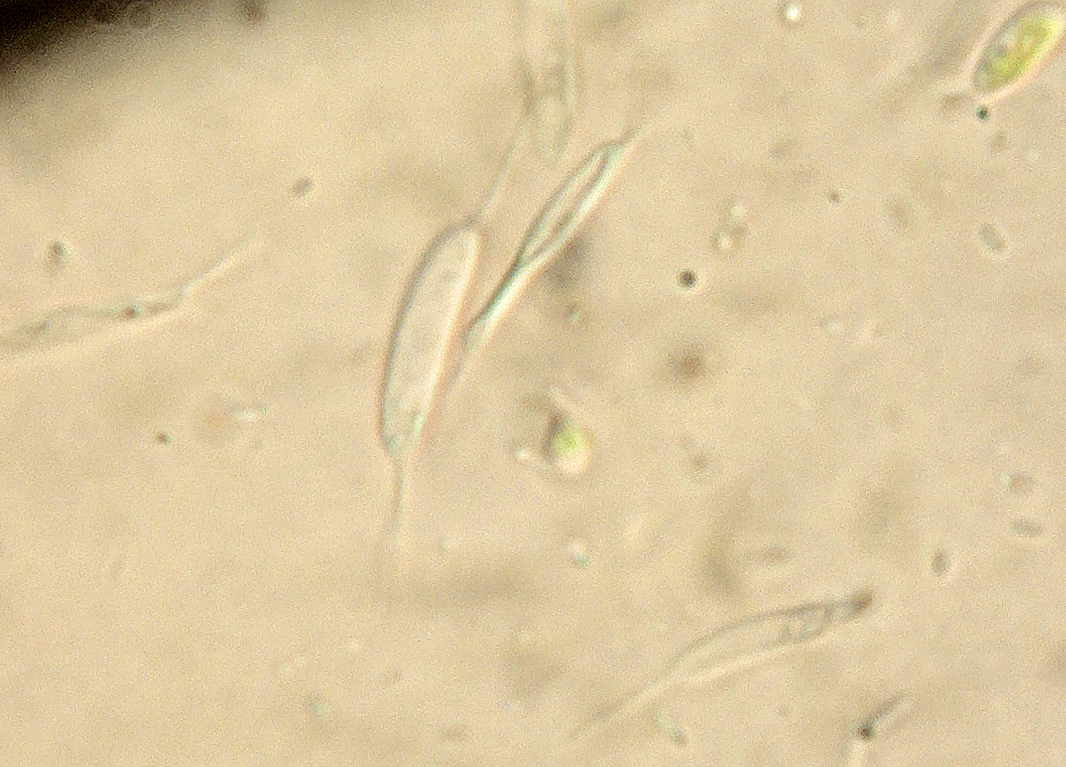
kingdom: Fungi
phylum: Ascomycota
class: Sordariomycetes
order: Phomatosporales
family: Phomatosporaceae
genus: Phomatospora
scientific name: Phomatospora dinemasporium
